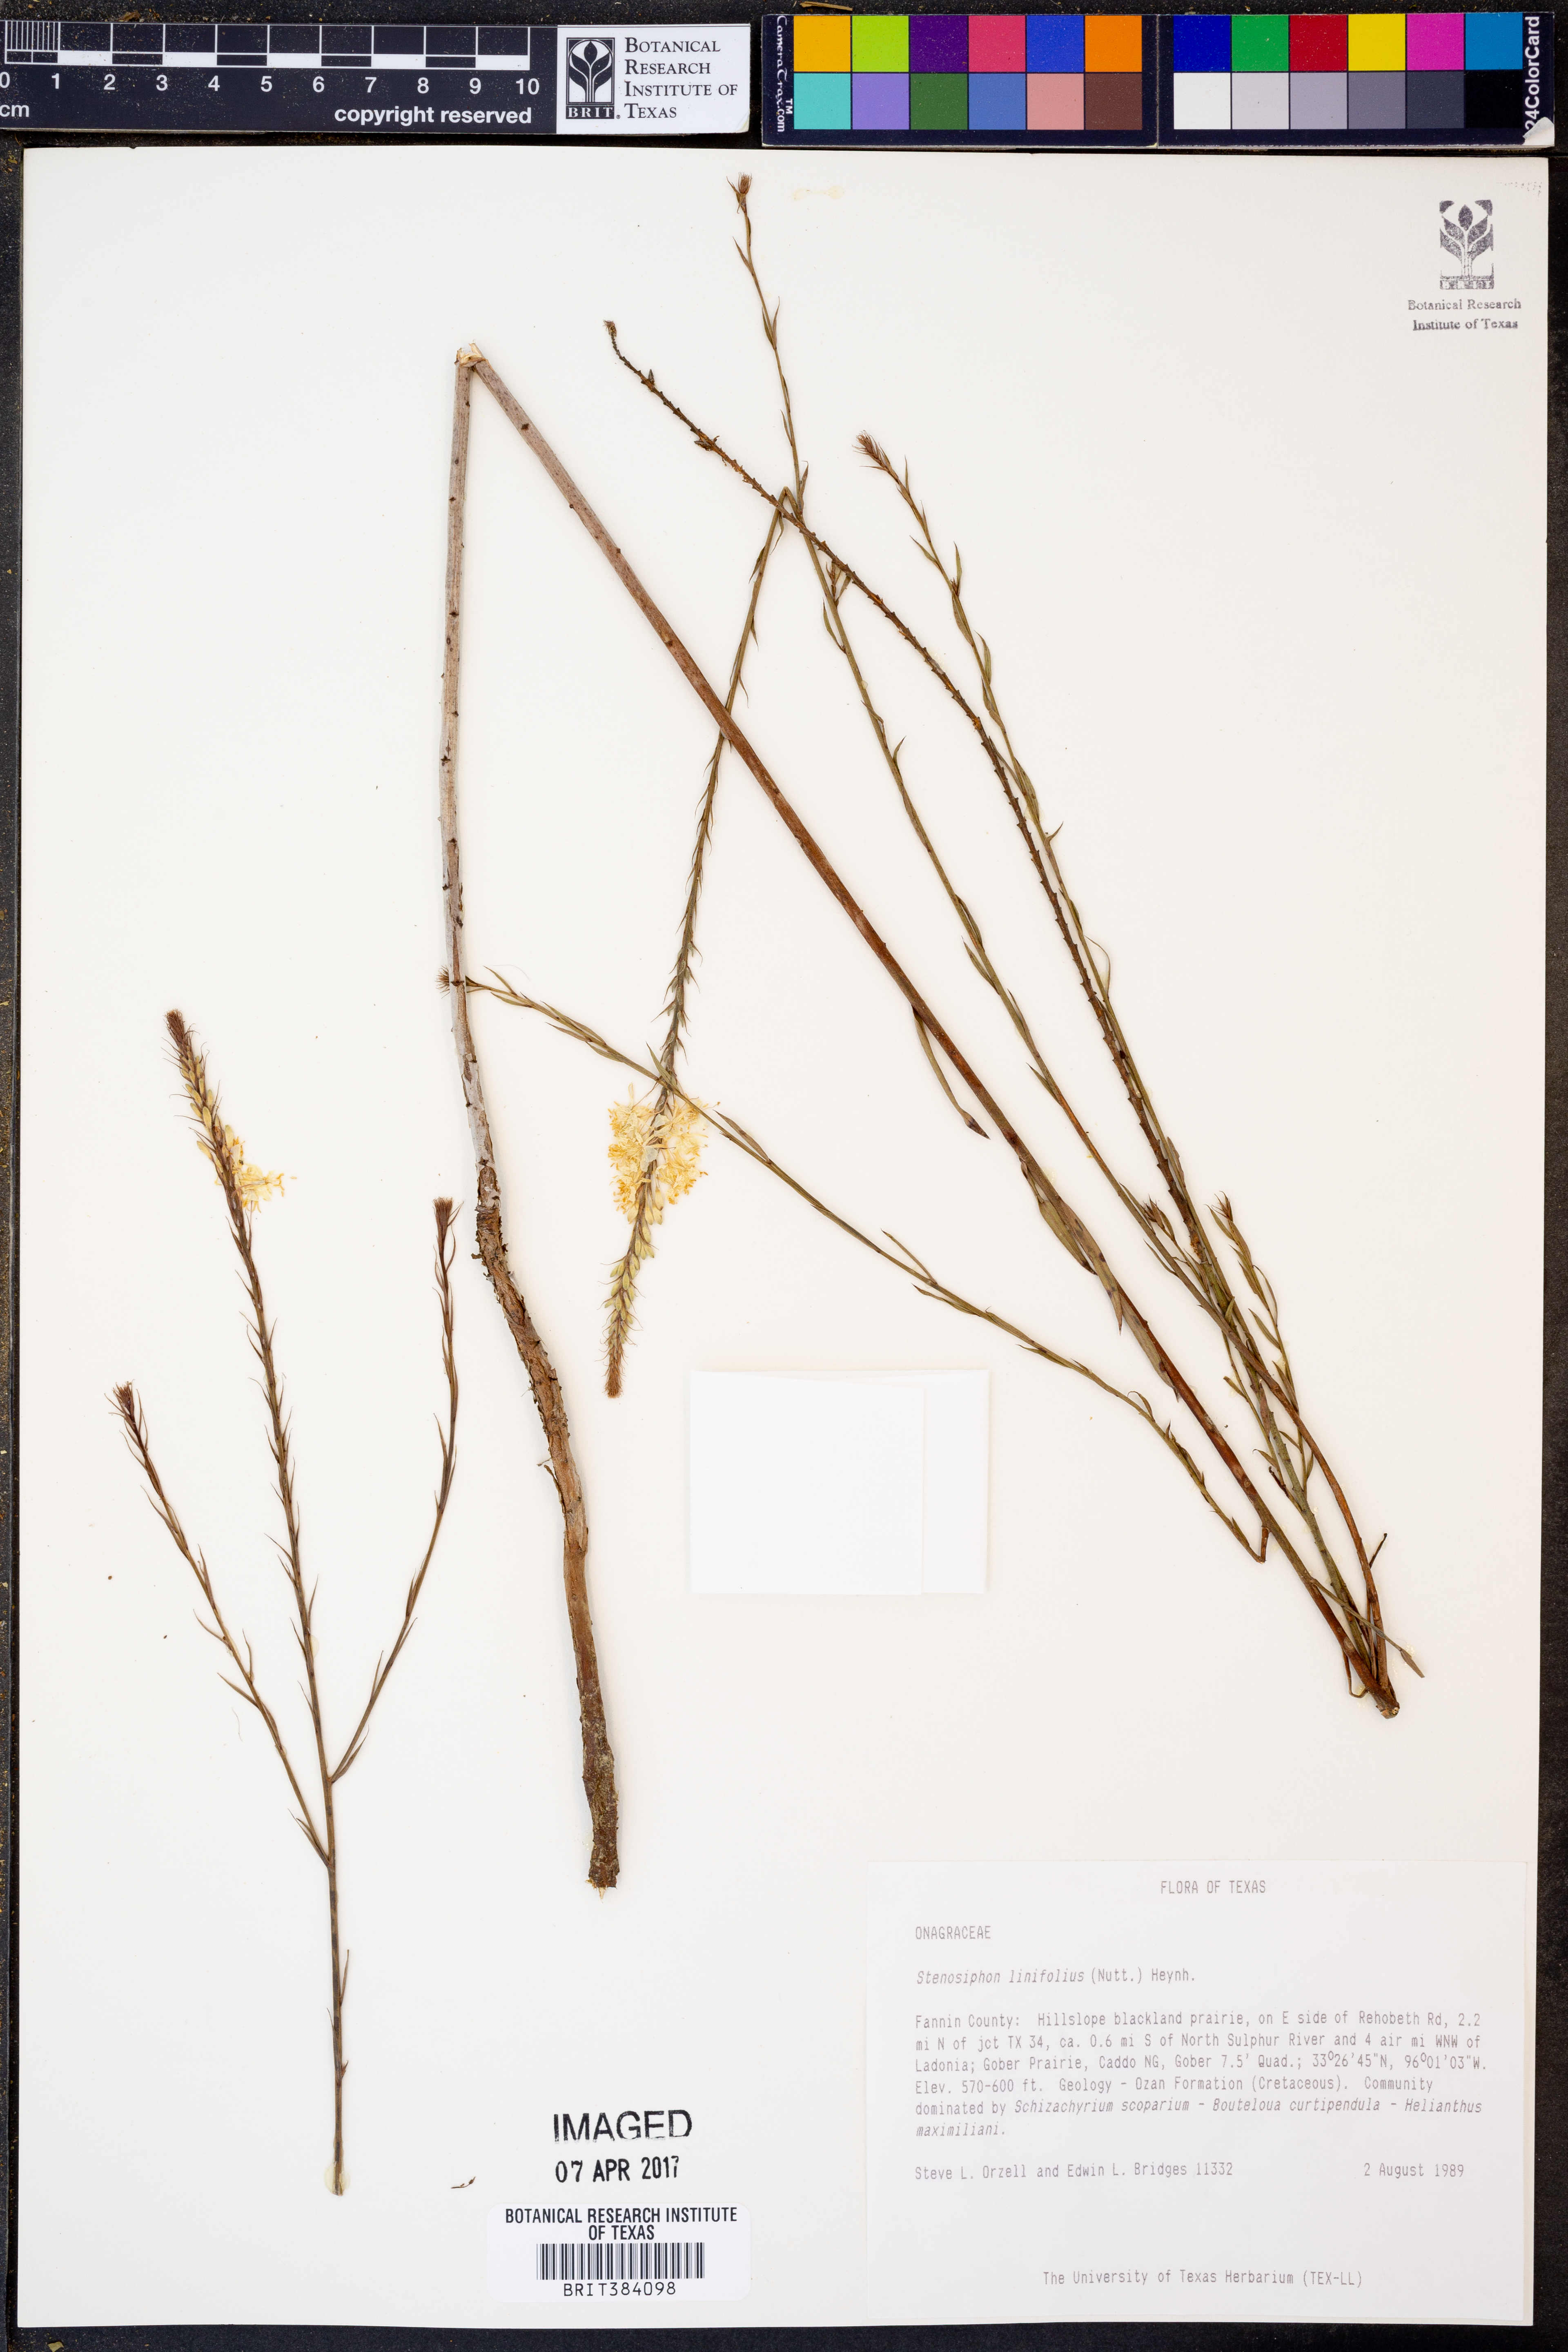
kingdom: Plantae
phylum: Tracheophyta
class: Magnoliopsida
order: Myrtales
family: Onagraceae
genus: Oenothera
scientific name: Oenothera glaucifolia
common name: False gaura
